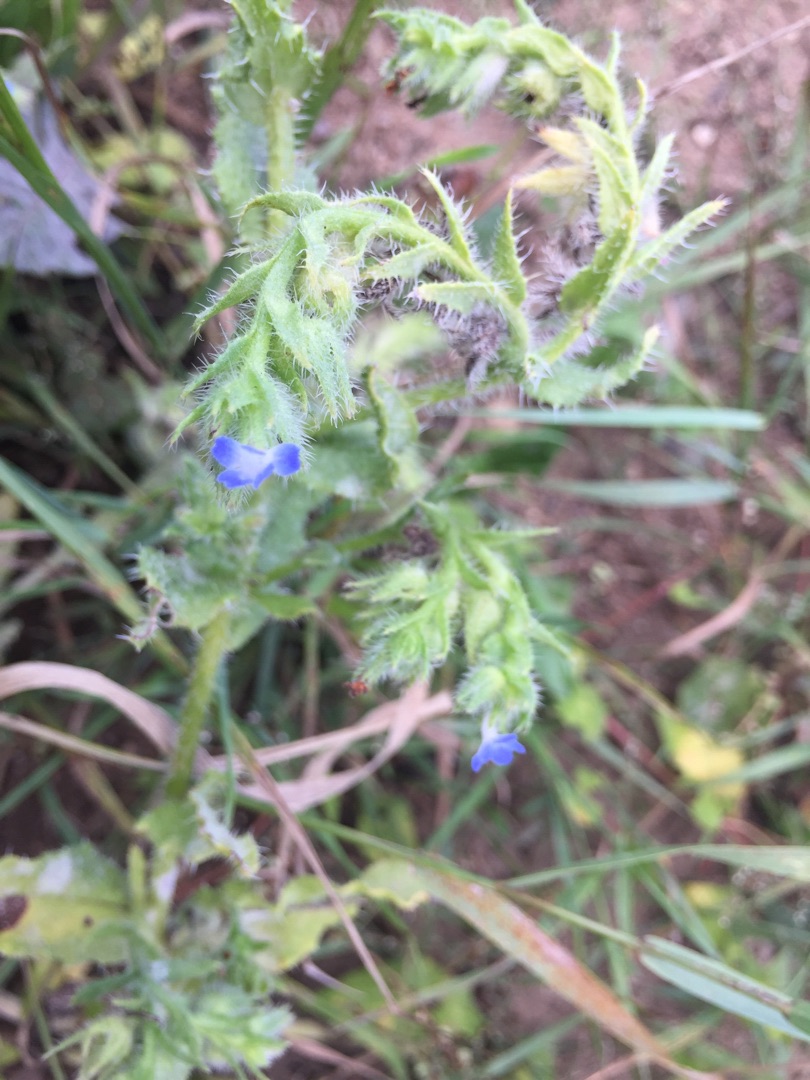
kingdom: Plantae
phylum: Tracheophyta
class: Magnoliopsida
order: Boraginales
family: Boraginaceae
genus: Lycopsis
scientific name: Lycopsis arvensis
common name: Krumhals
